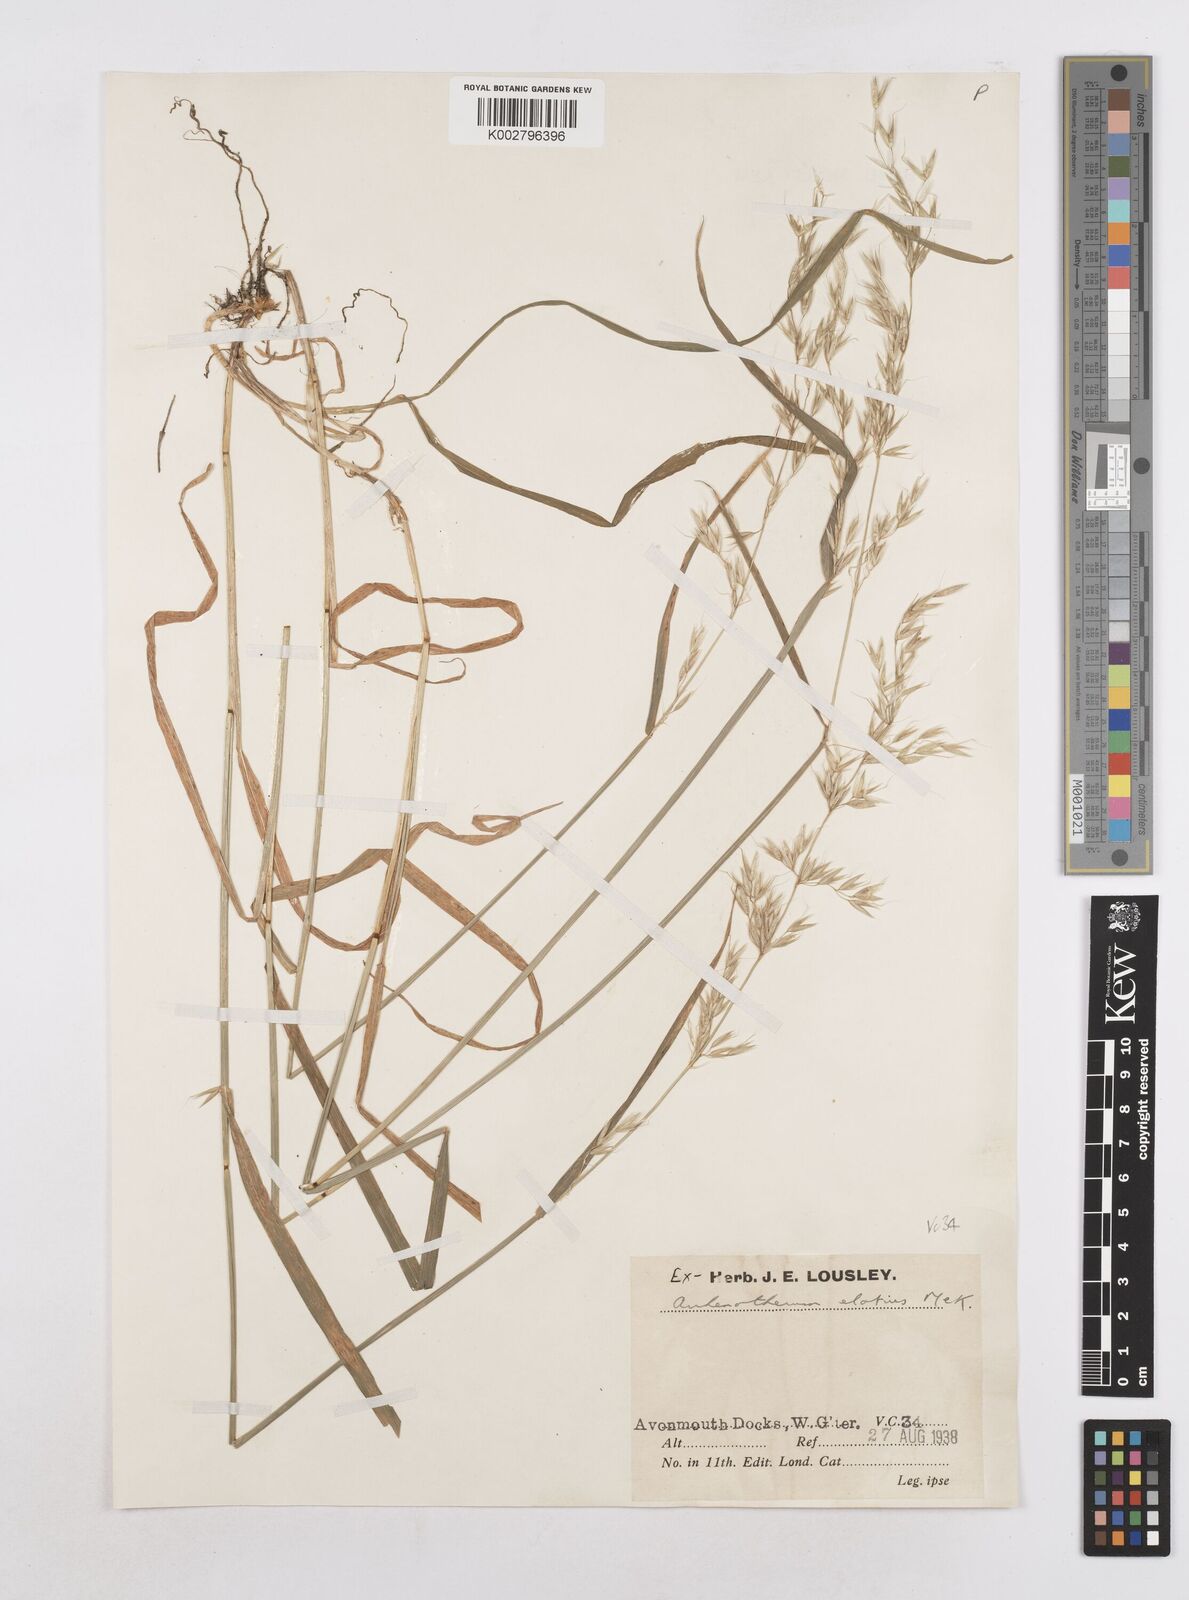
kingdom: Plantae
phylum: Tracheophyta
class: Liliopsida
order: Poales
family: Poaceae
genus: Arrhenatherum
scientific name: Arrhenatherum elatius
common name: Tall oatgrass
